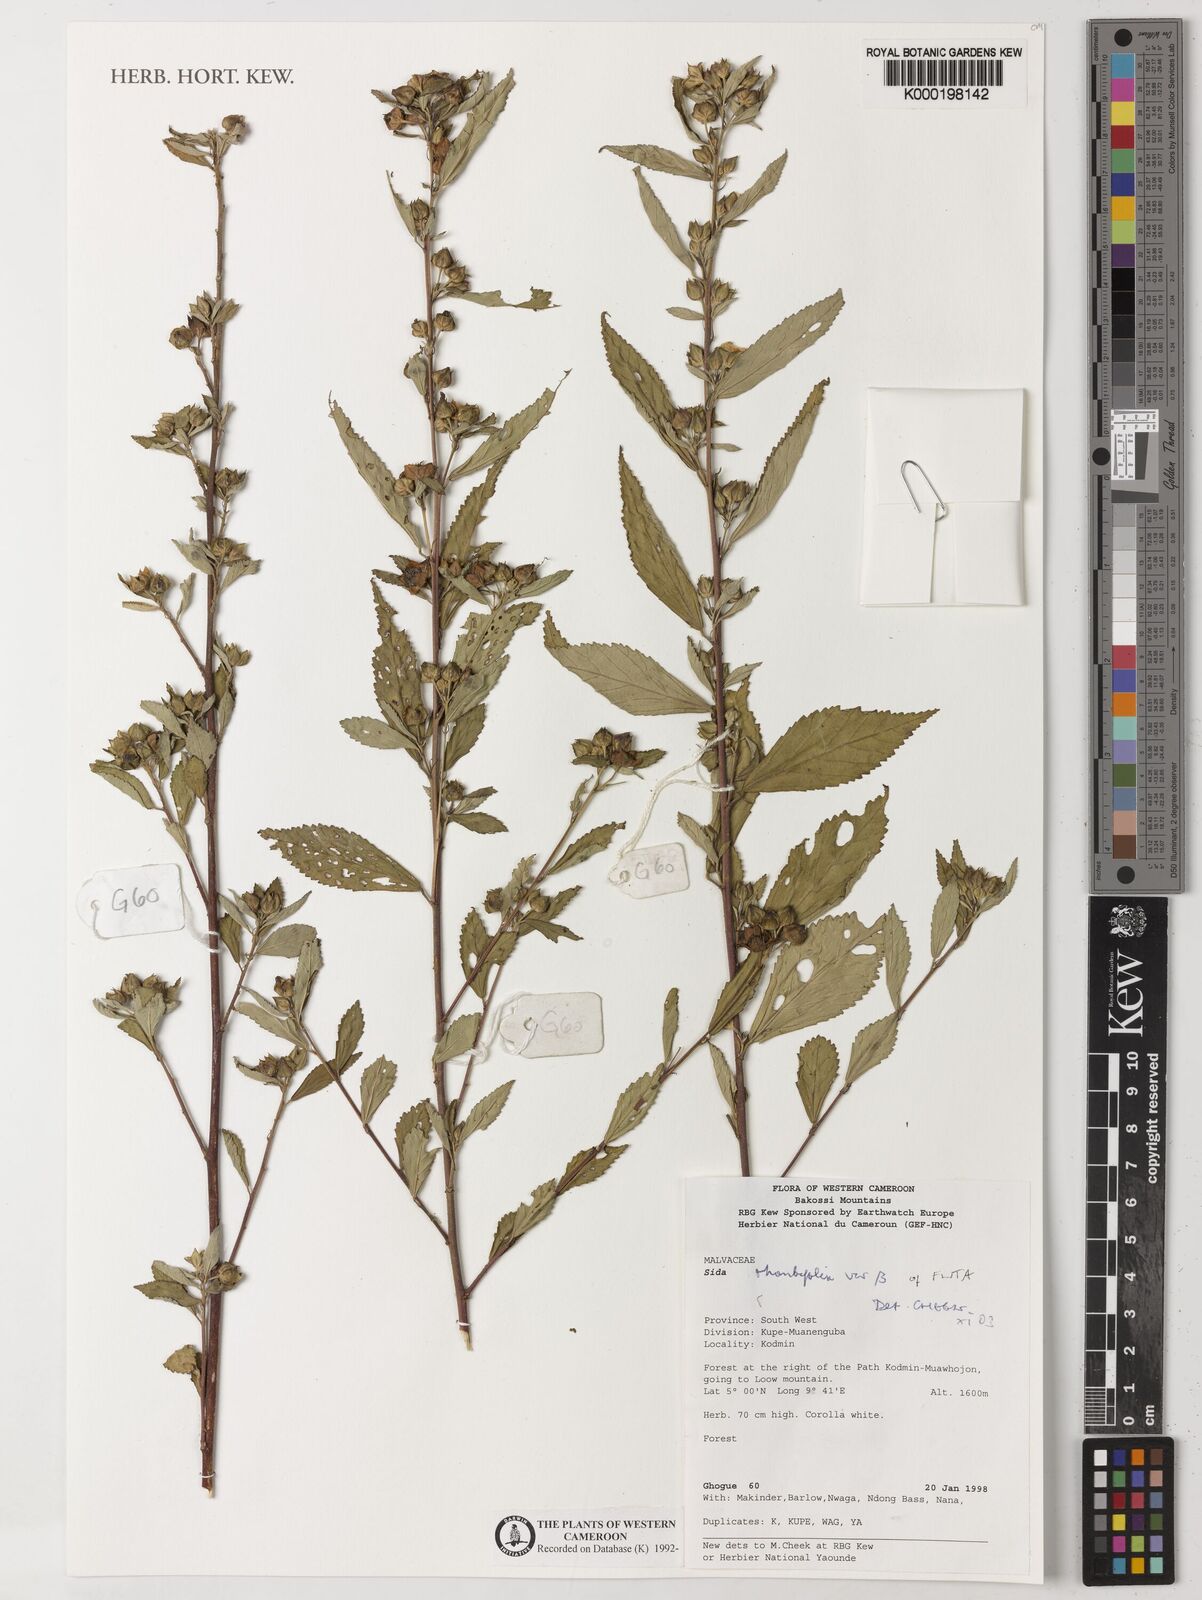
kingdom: Plantae
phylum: Tracheophyta
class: Magnoliopsida
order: Malvales
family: Malvaceae
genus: Sida
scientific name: Sida rhombifolia
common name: Queensland-hemp
